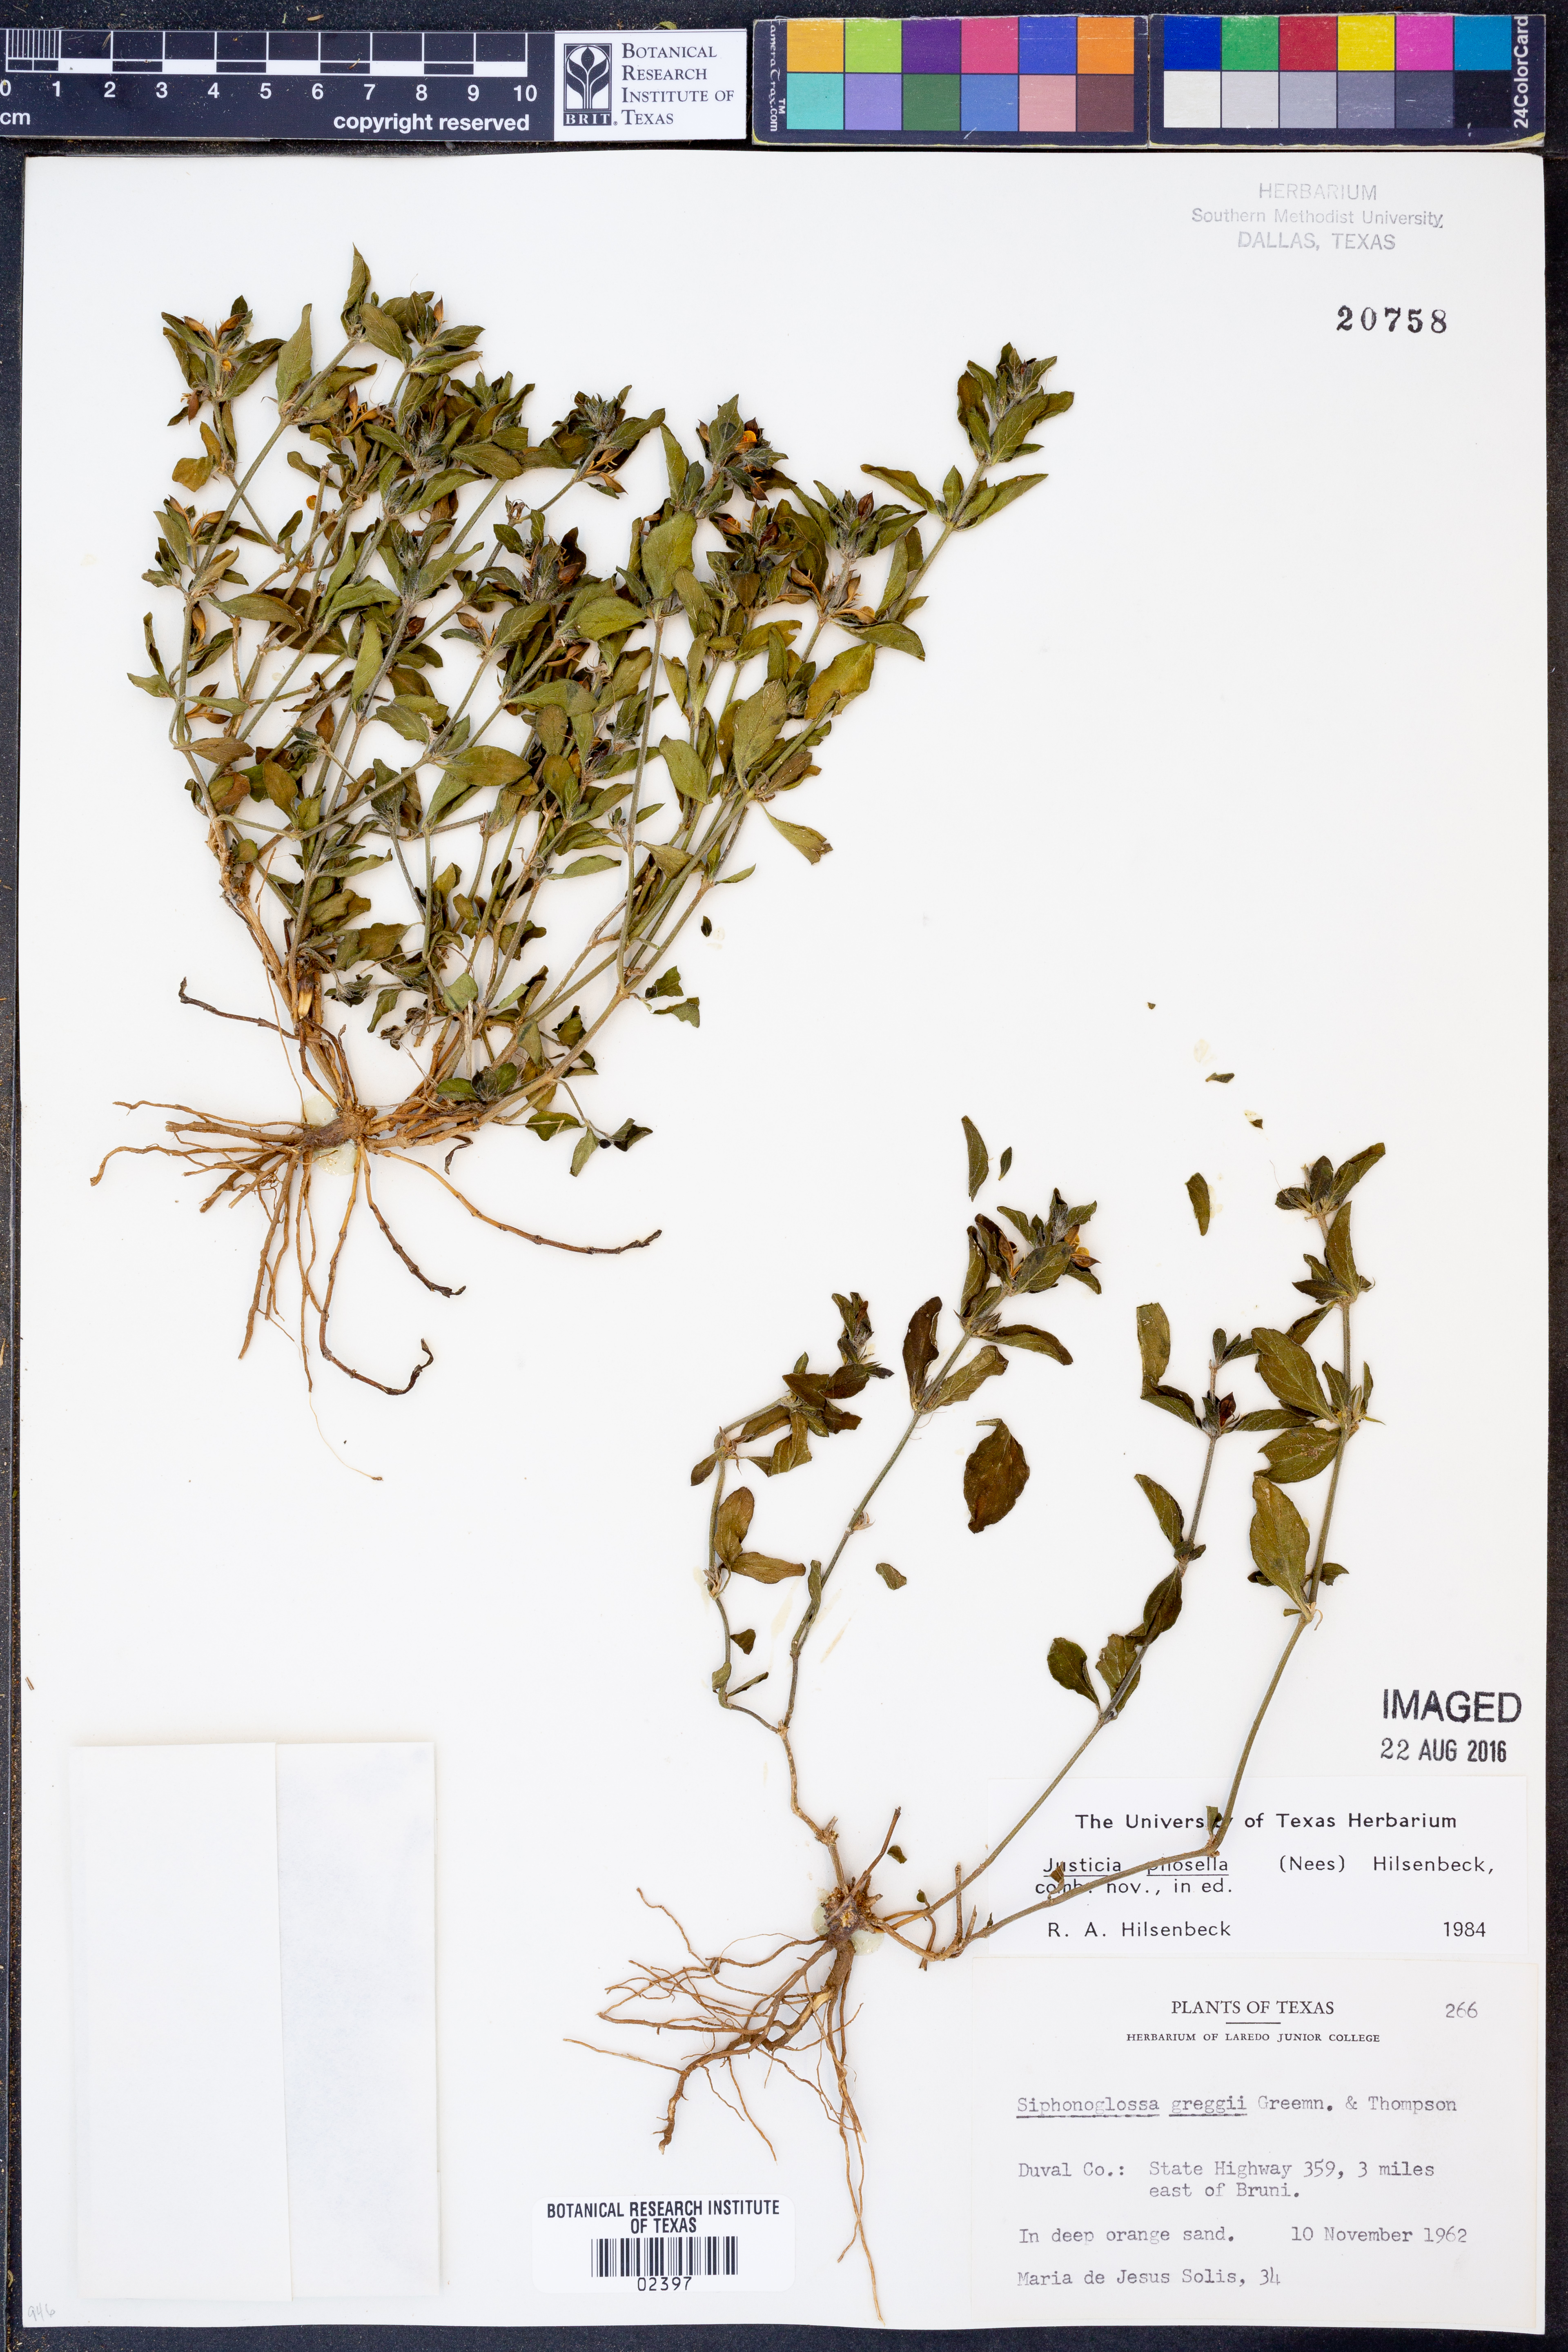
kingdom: Plantae
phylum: Tracheophyta
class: Magnoliopsida
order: Lamiales
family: Acanthaceae
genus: Justicia
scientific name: Justicia pilosella
